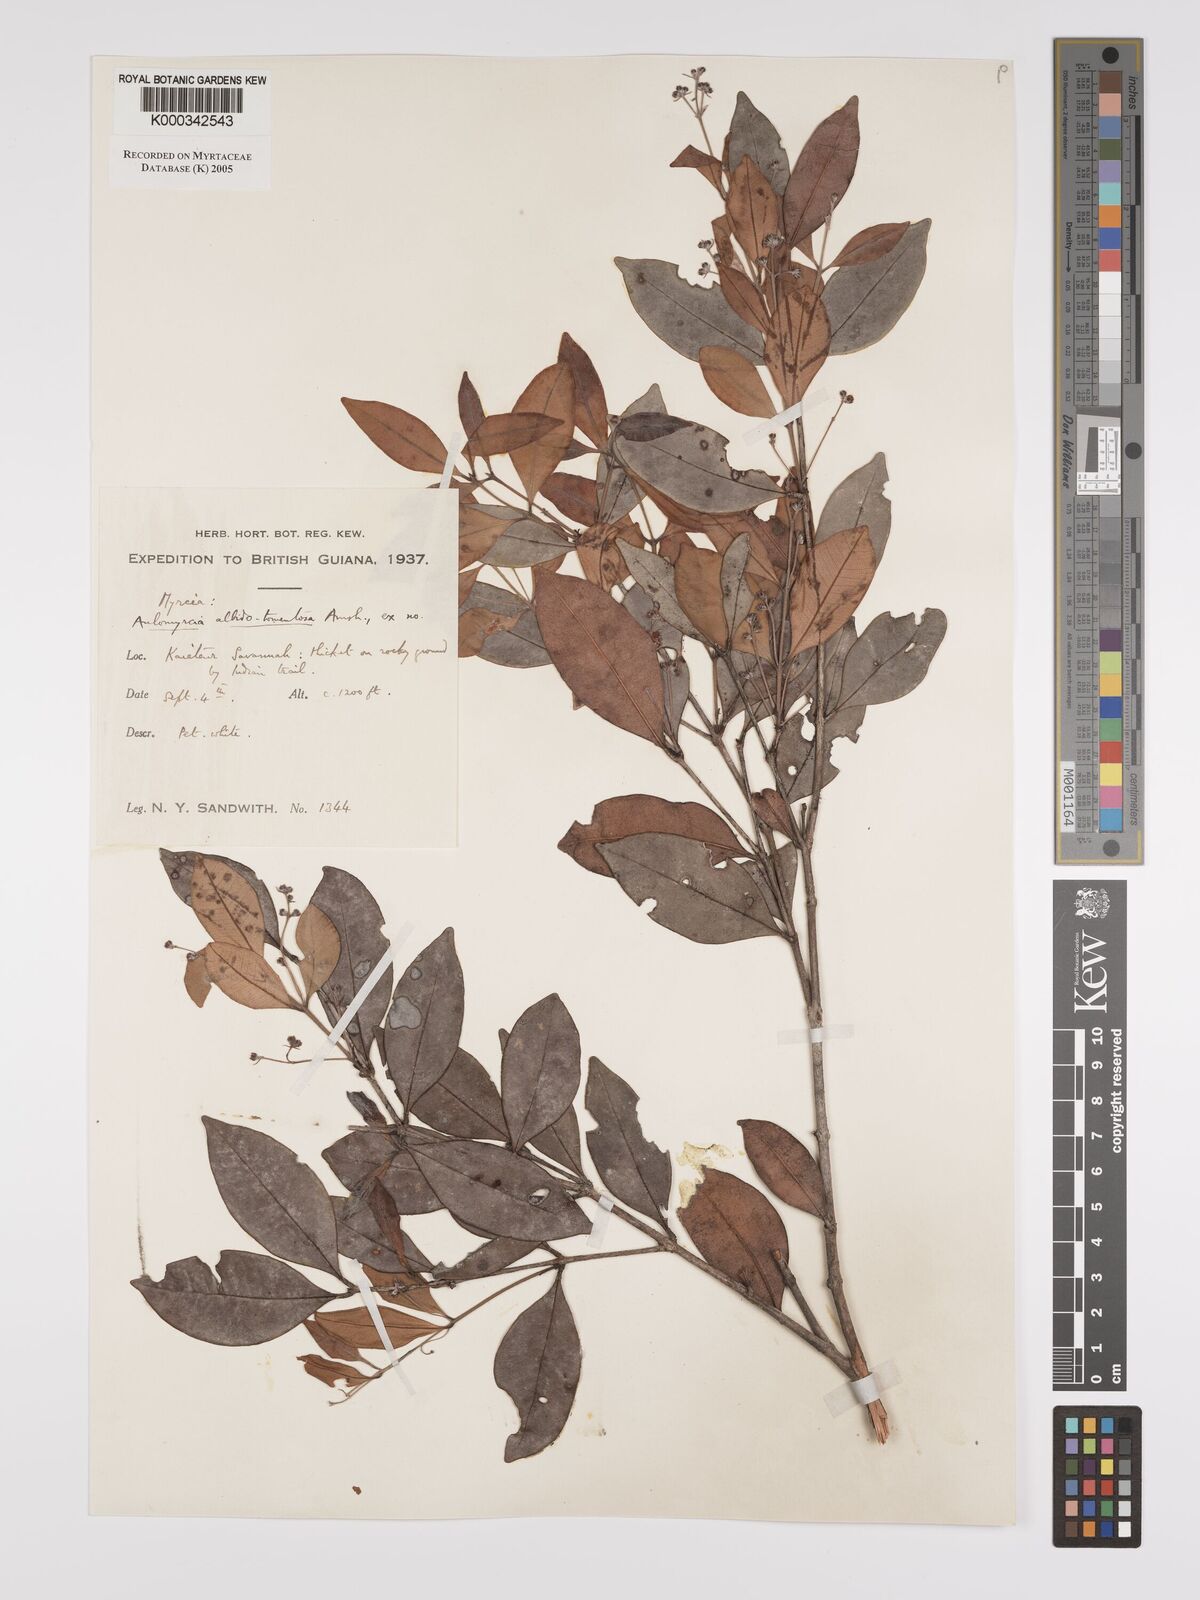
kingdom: Plantae
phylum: Tracheophyta
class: Magnoliopsida
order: Myrtales
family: Myrtaceae
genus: Myrcia
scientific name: Myrcia albidotomentosa
